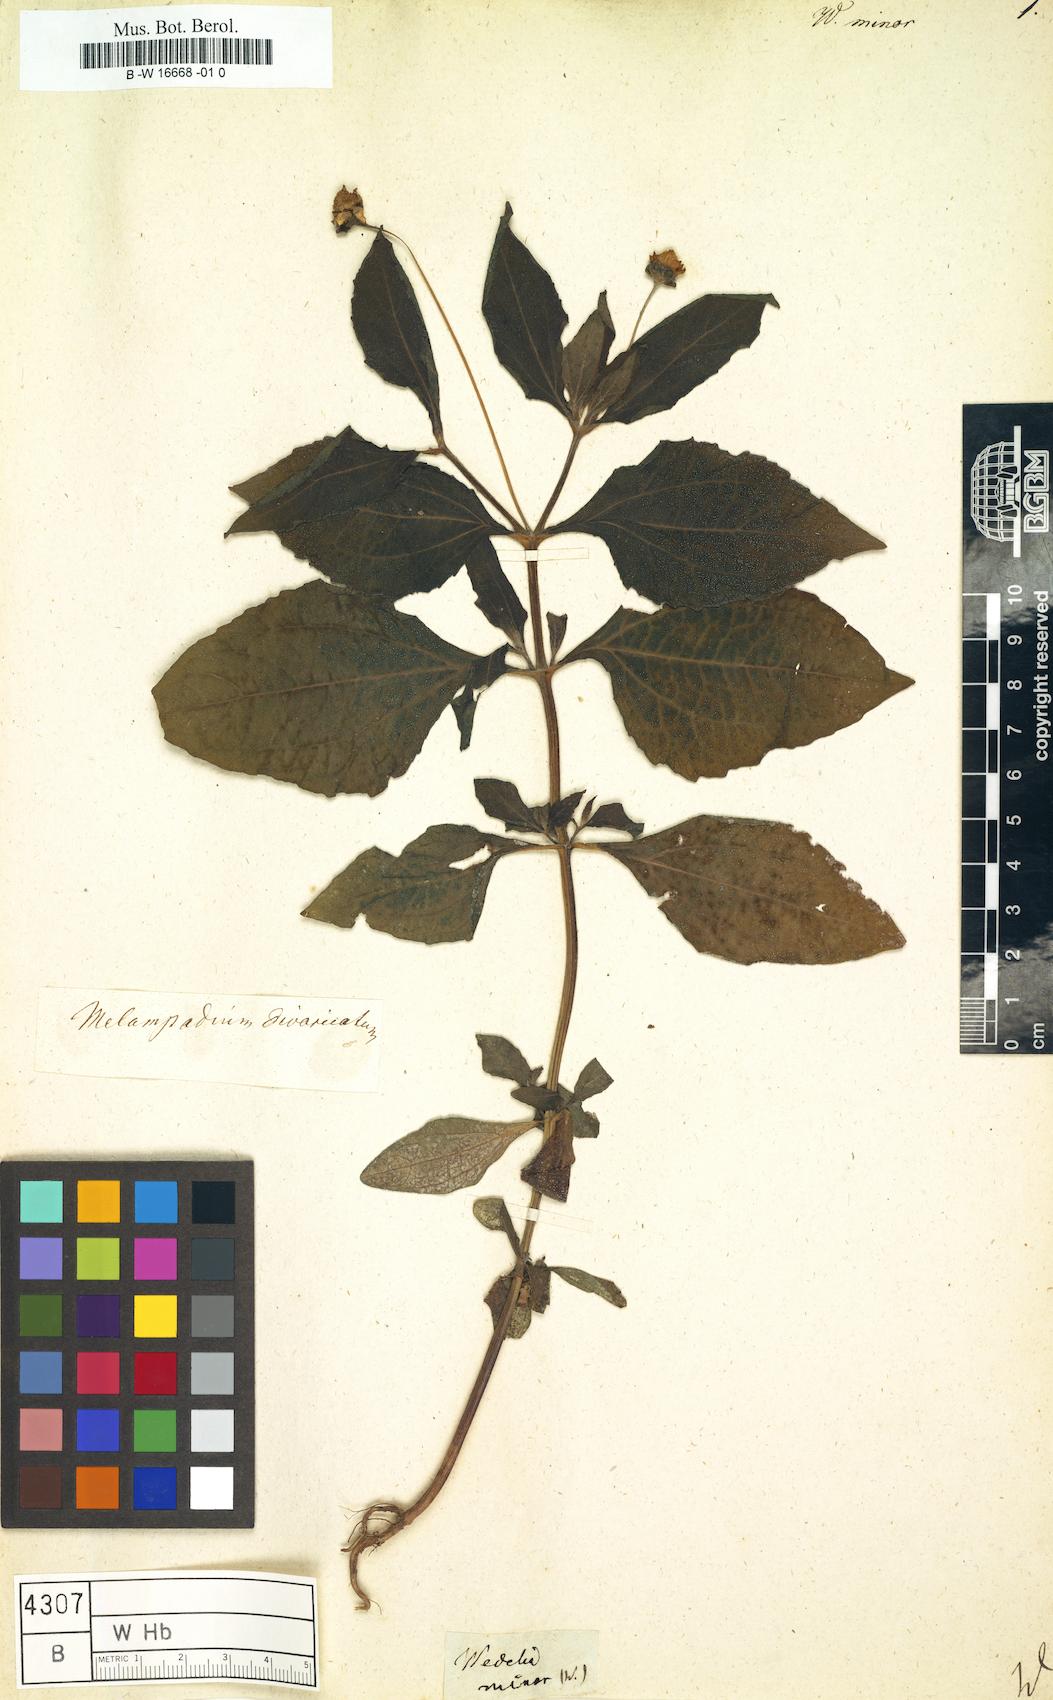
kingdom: Plantae
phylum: Tracheophyta
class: Magnoliopsida
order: Asterales
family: Asteraceae
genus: Melampodium
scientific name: Melampodium divaricatum
